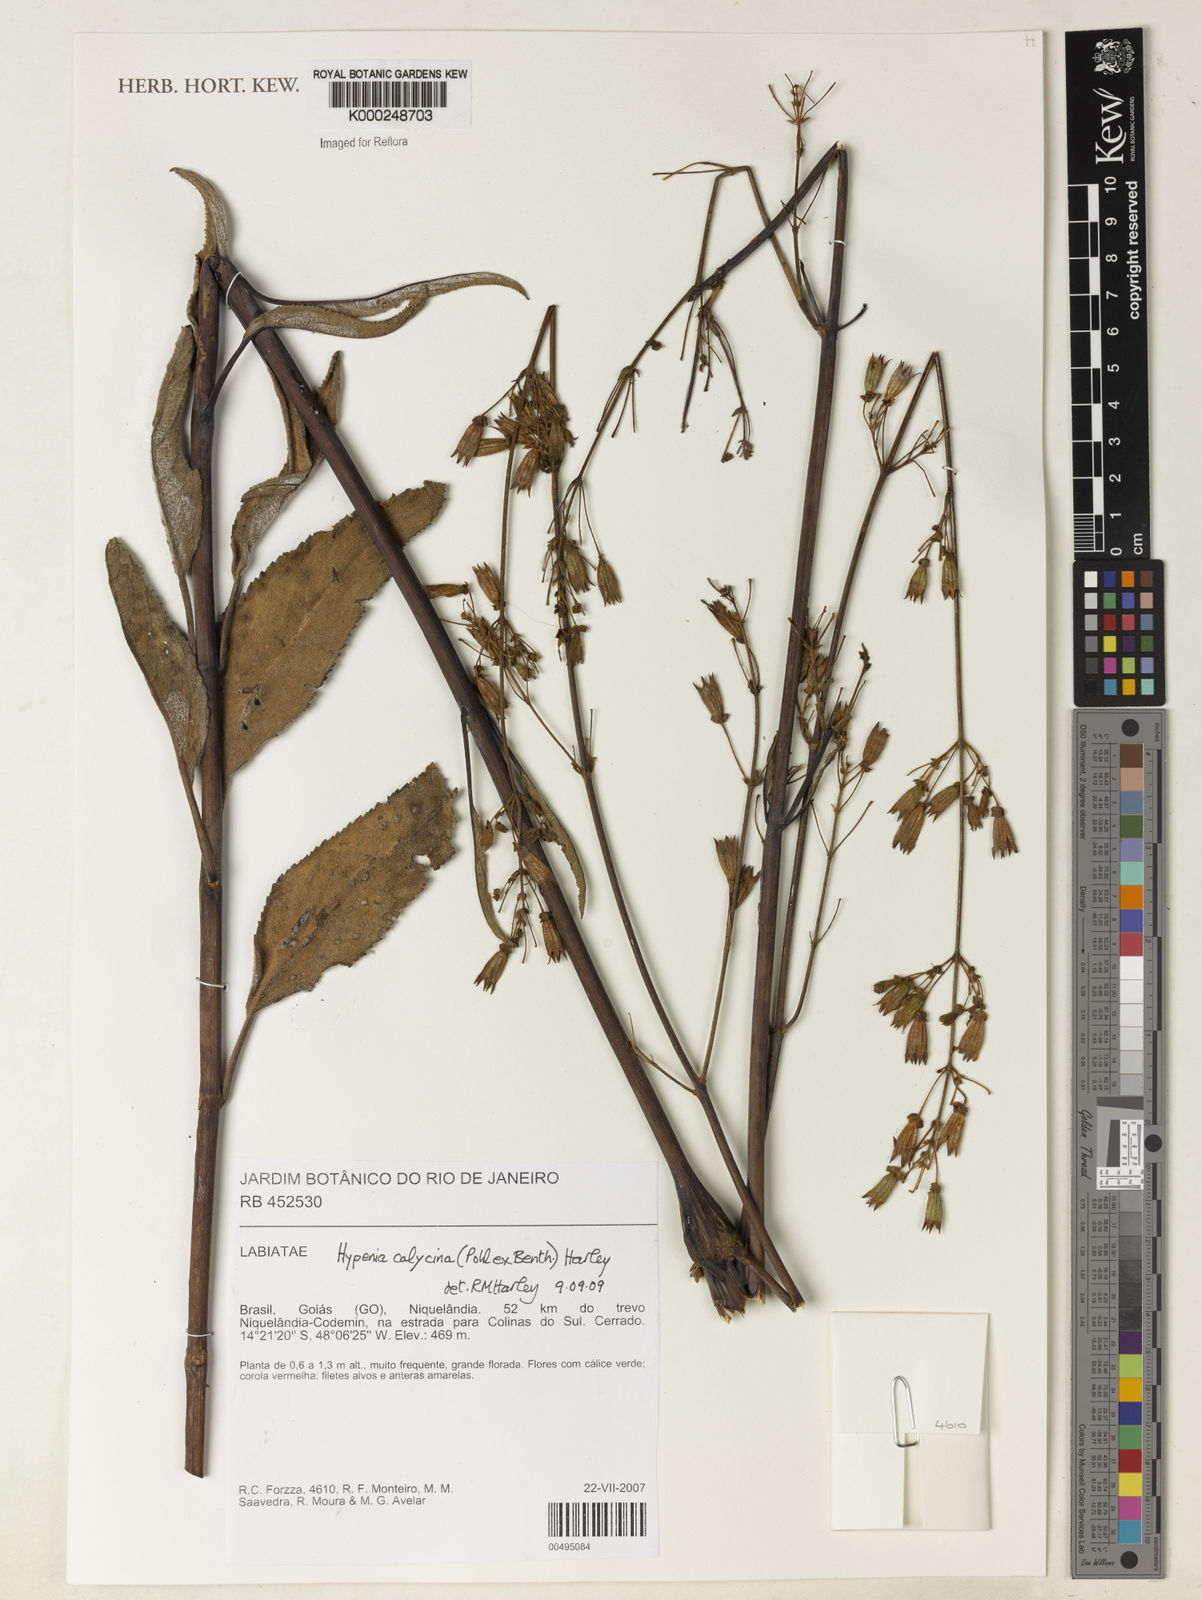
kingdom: Plantae
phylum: Tracheophyta
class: Magnoliopsida
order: Lamiales
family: Lamiaceae
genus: Hypenia
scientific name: Hypenia calycina
